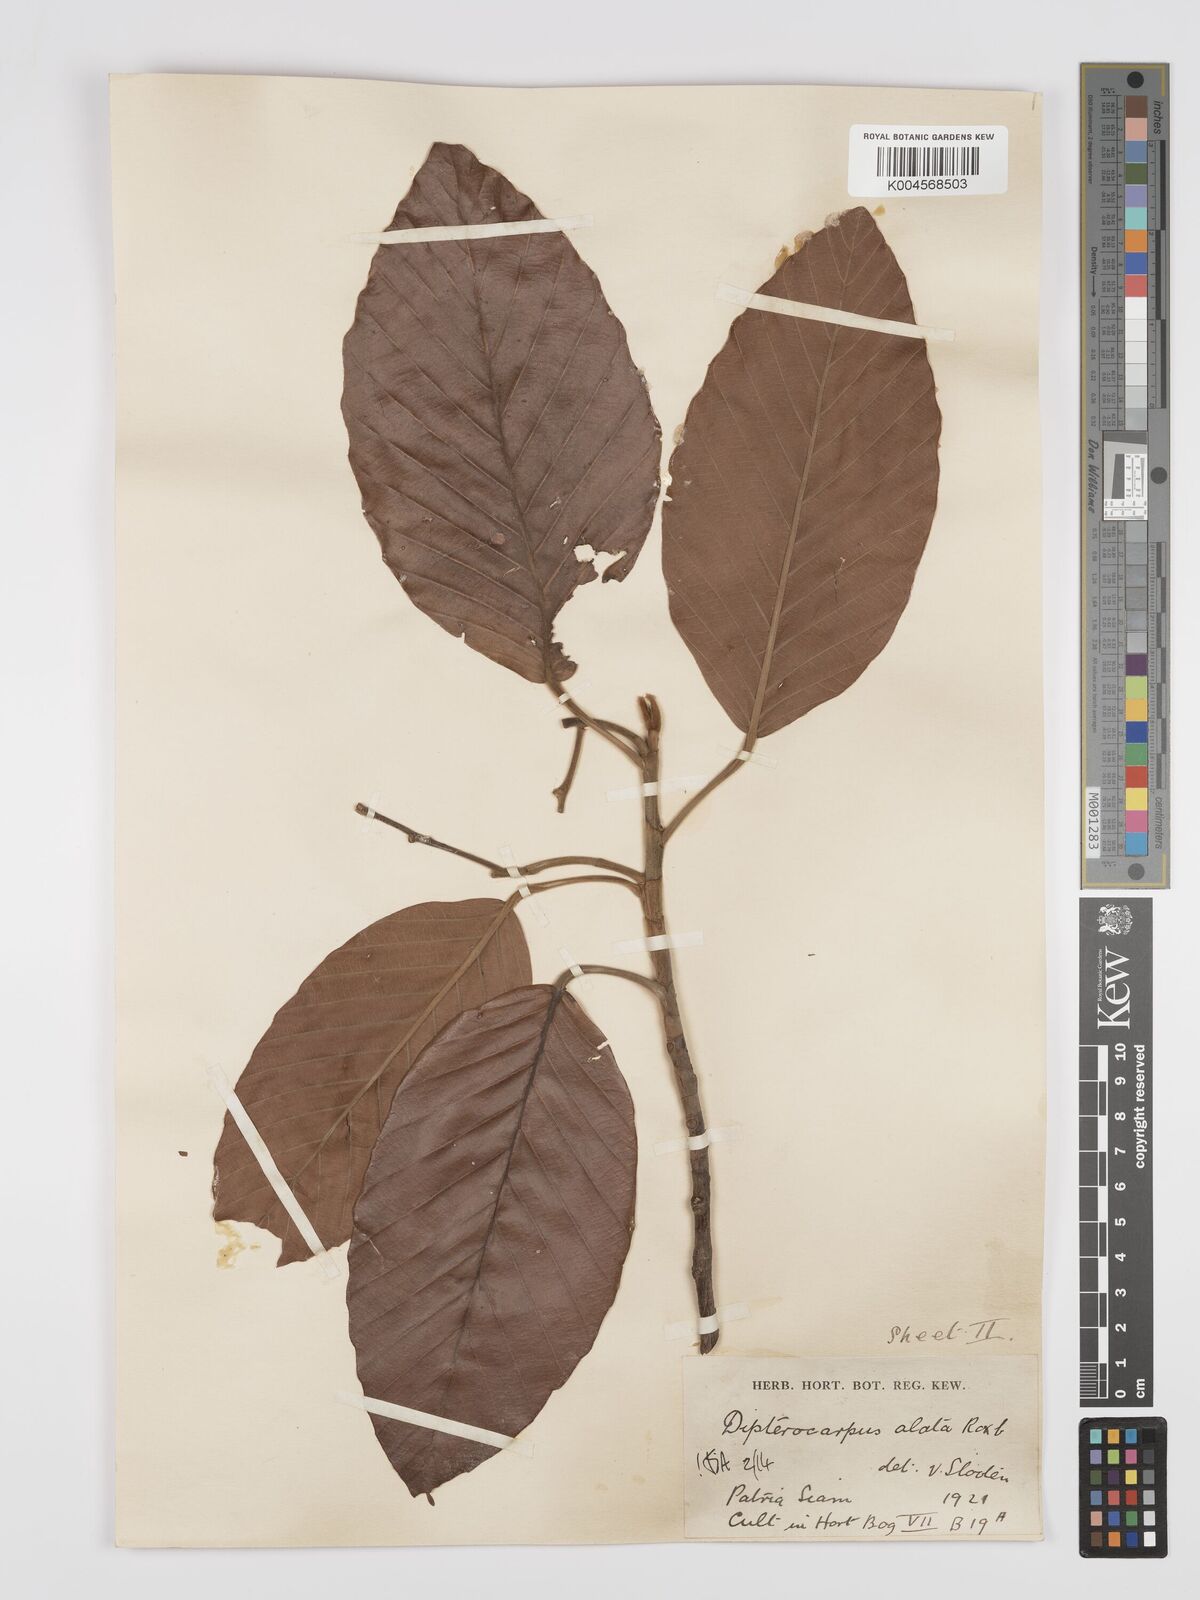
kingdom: Plantae
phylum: Tracheophyta
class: Magnoliopsida
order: Malvales
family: Dipterocarpaceae
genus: Dipterocarpus
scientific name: Dipterocarpus
